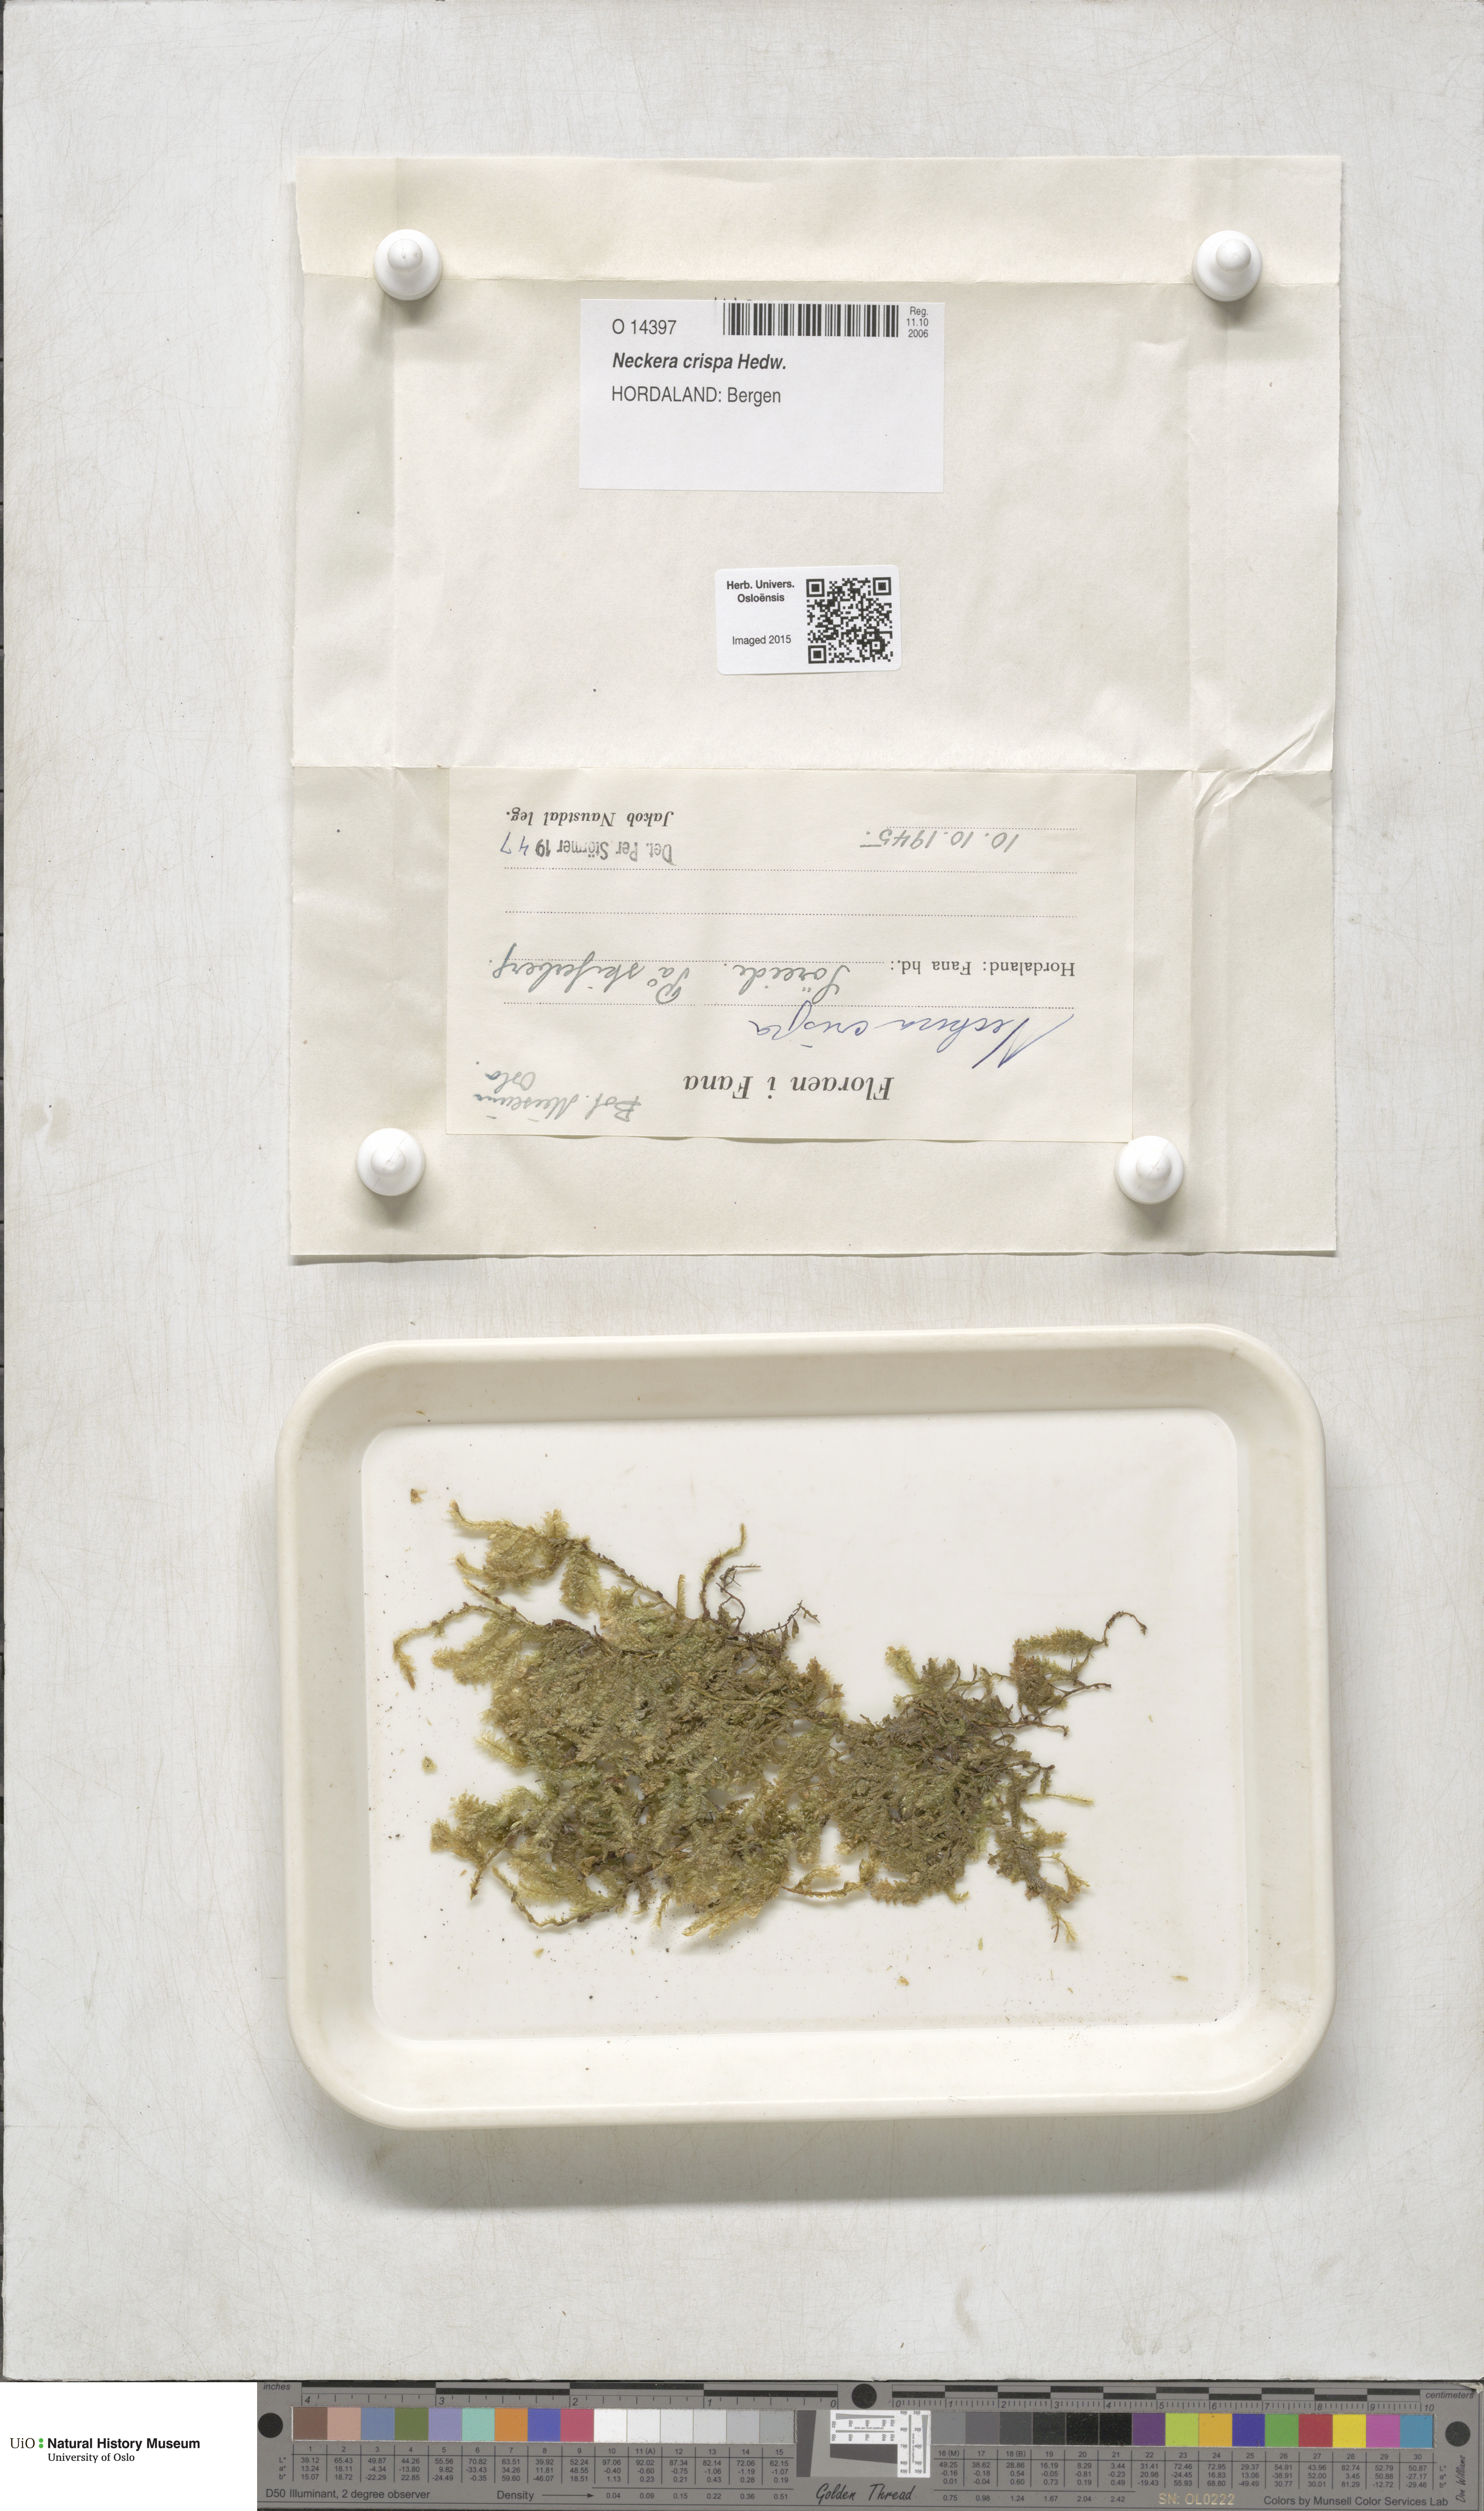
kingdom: Plantae
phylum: Bryophyta
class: Bryopsida
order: Hypnales
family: Neckeraceae
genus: Exsertotheca
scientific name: Exsertotheca crispa
